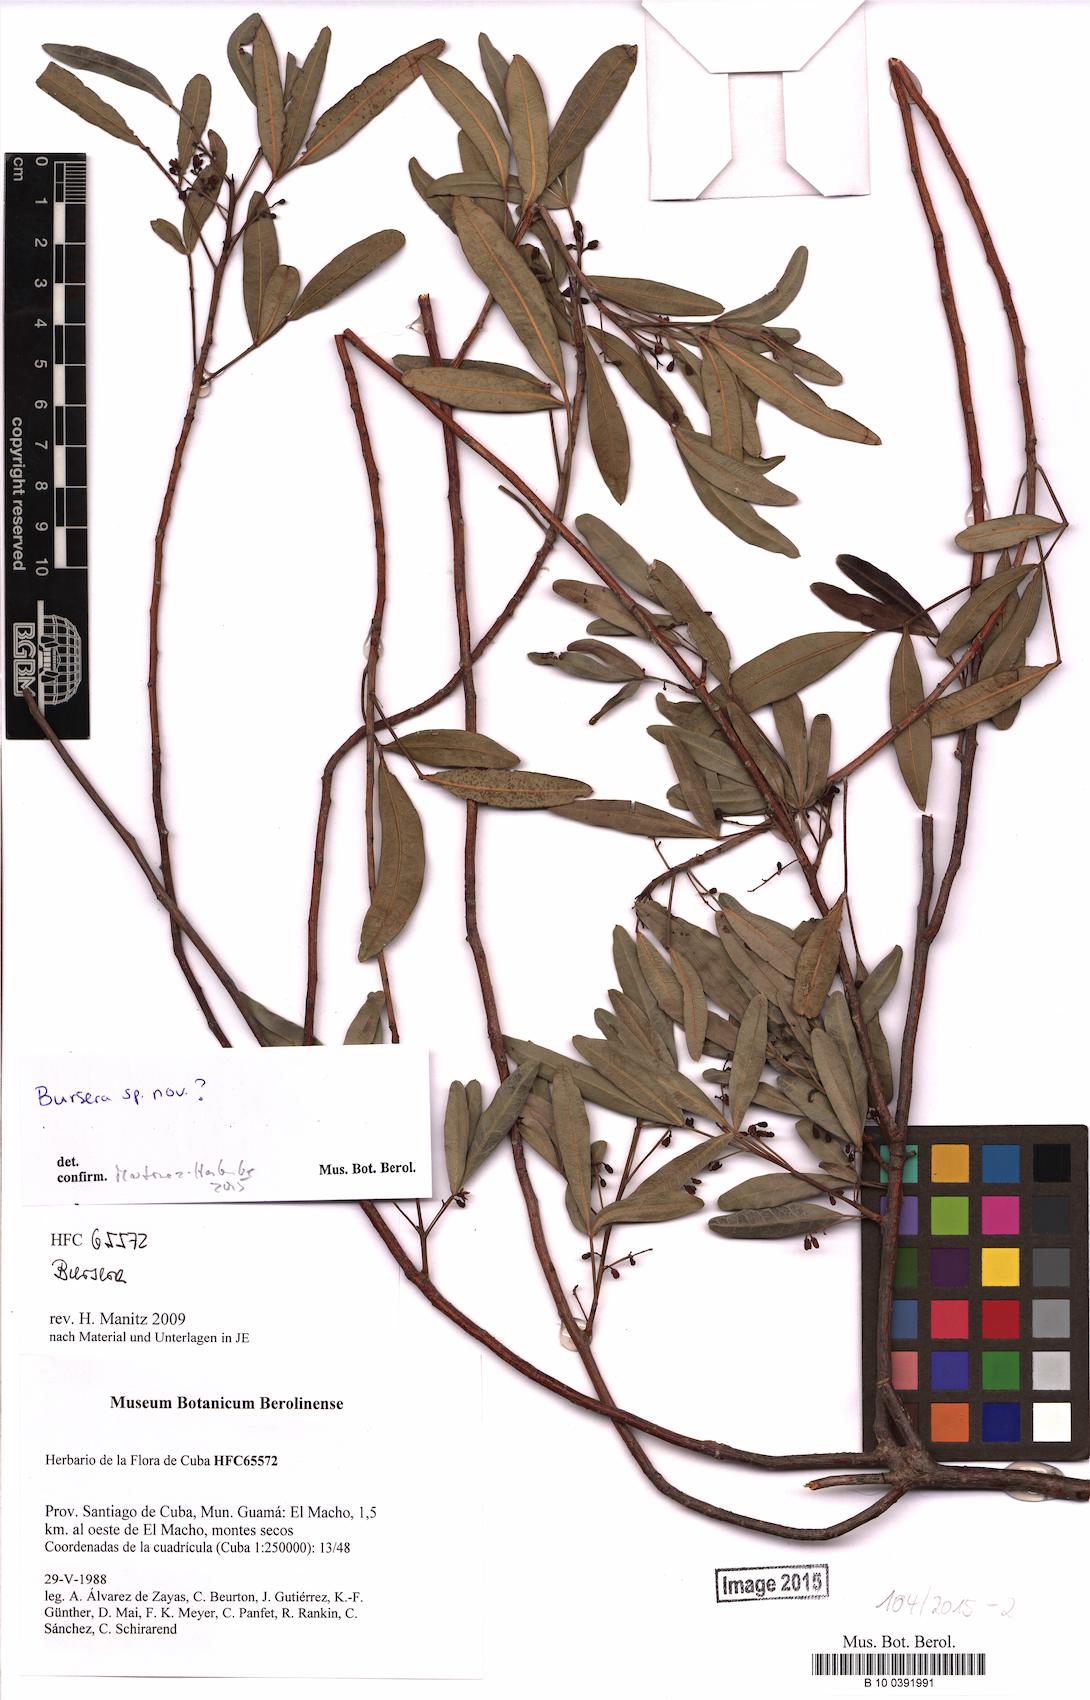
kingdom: Plantae
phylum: Tracheophyta
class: Magnoliopsida
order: Sapindales
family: Burseraceae
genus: Bursera
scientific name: Bursera
